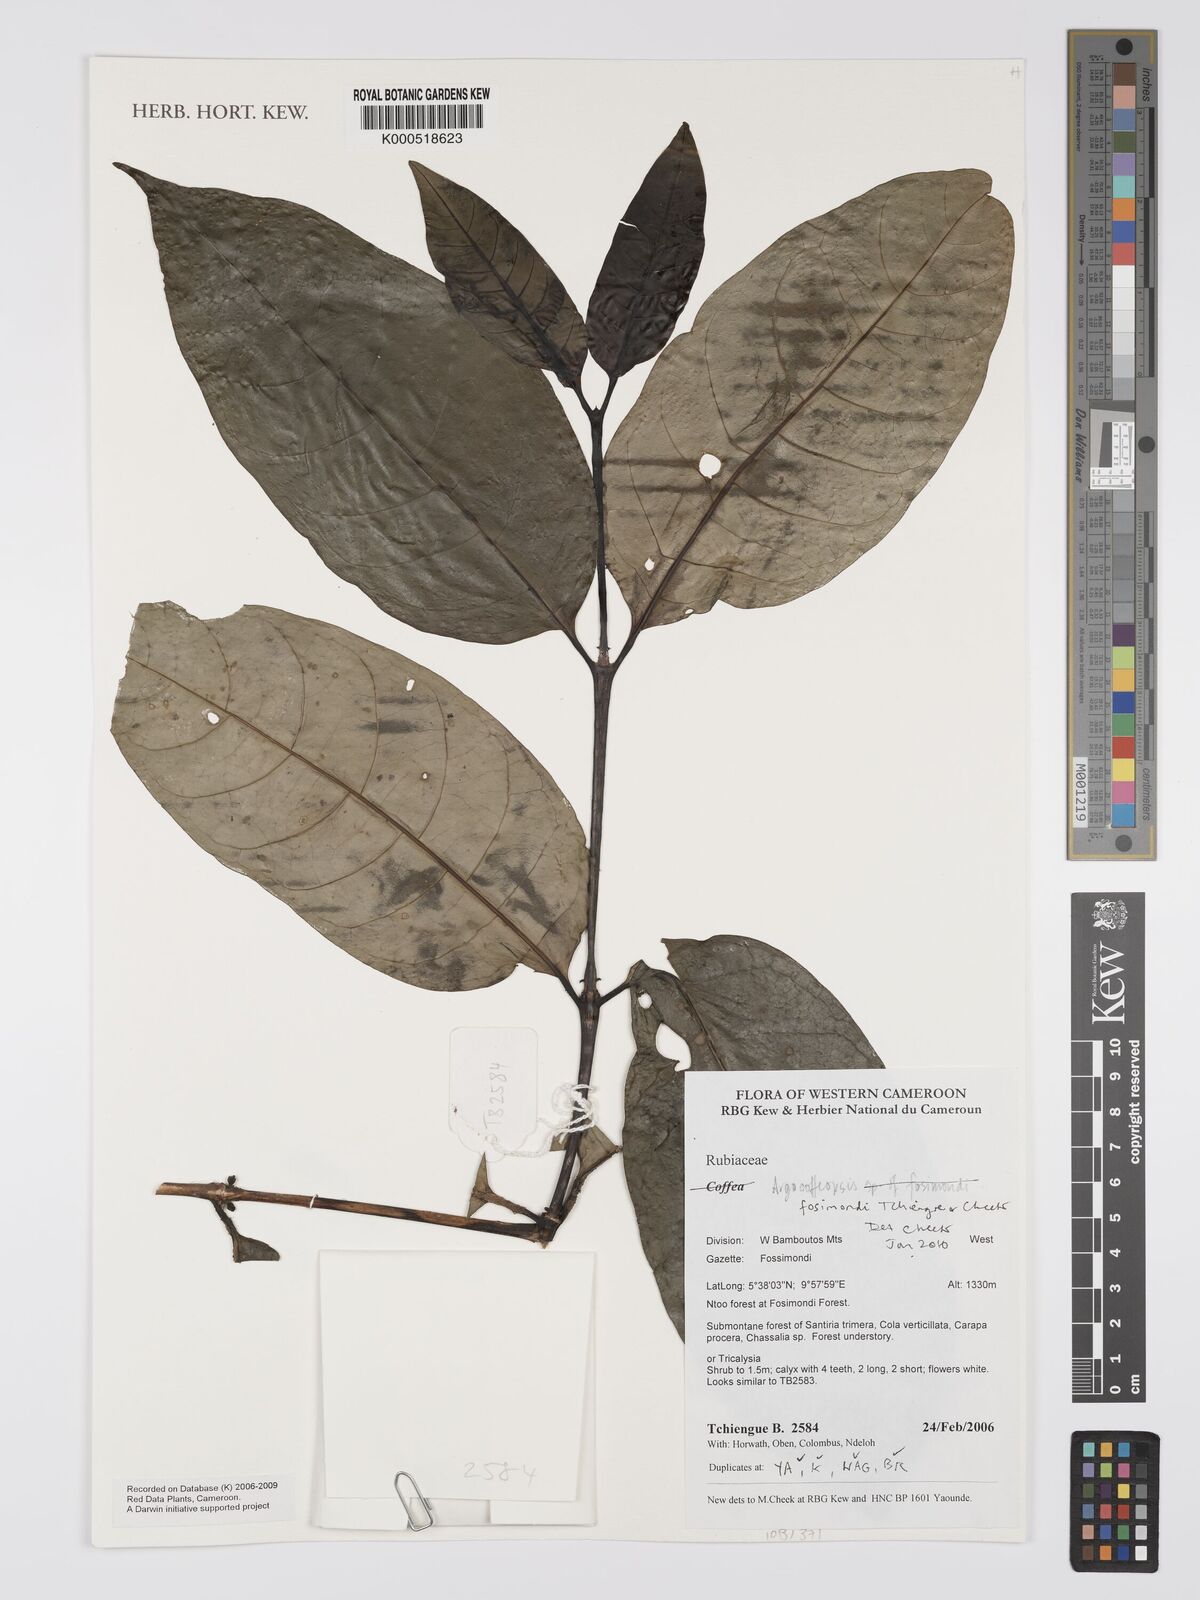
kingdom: Plantae
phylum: Tracheophyta
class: Magnoliopsida
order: Gentianales
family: Rubiaceae
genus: Argocoffeopsis
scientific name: Argocoffeopsis
